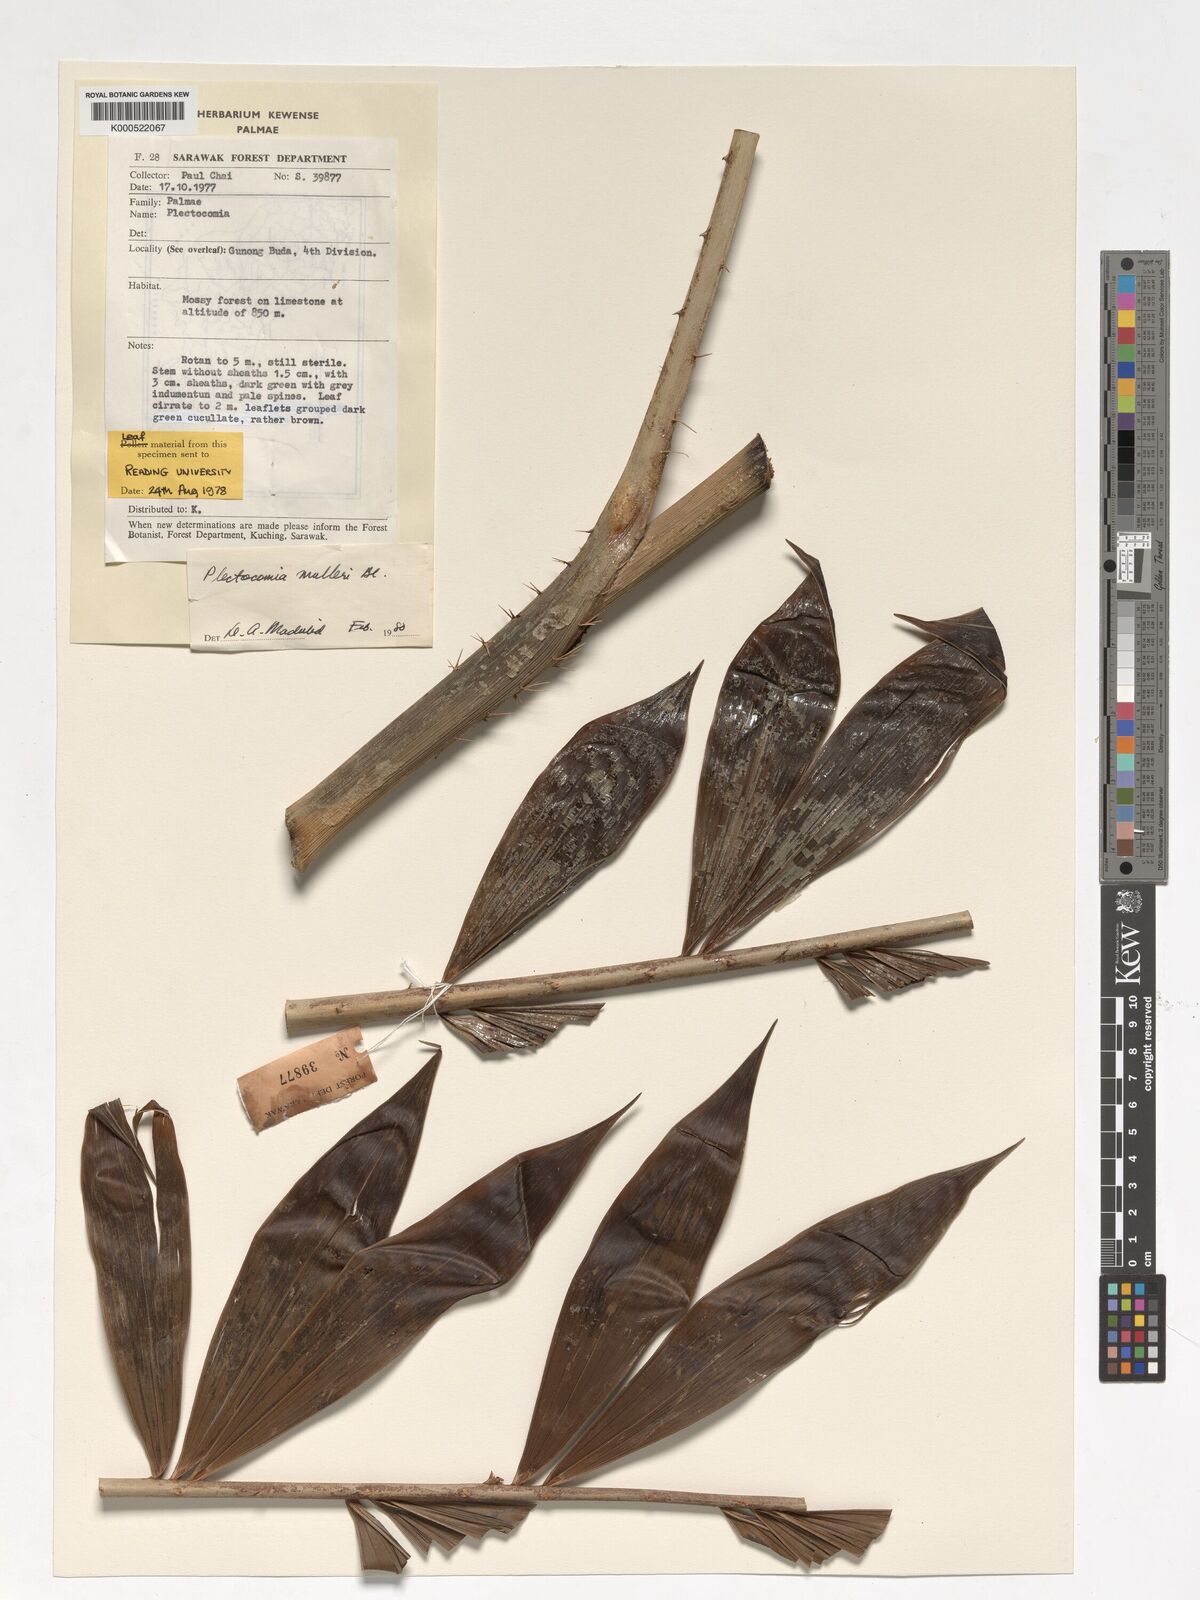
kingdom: Plantae
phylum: Tracheophyta
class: Liliopsida
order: Arecales
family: Arecaceae
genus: Plectocomia
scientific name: Plectocomia mulleri
